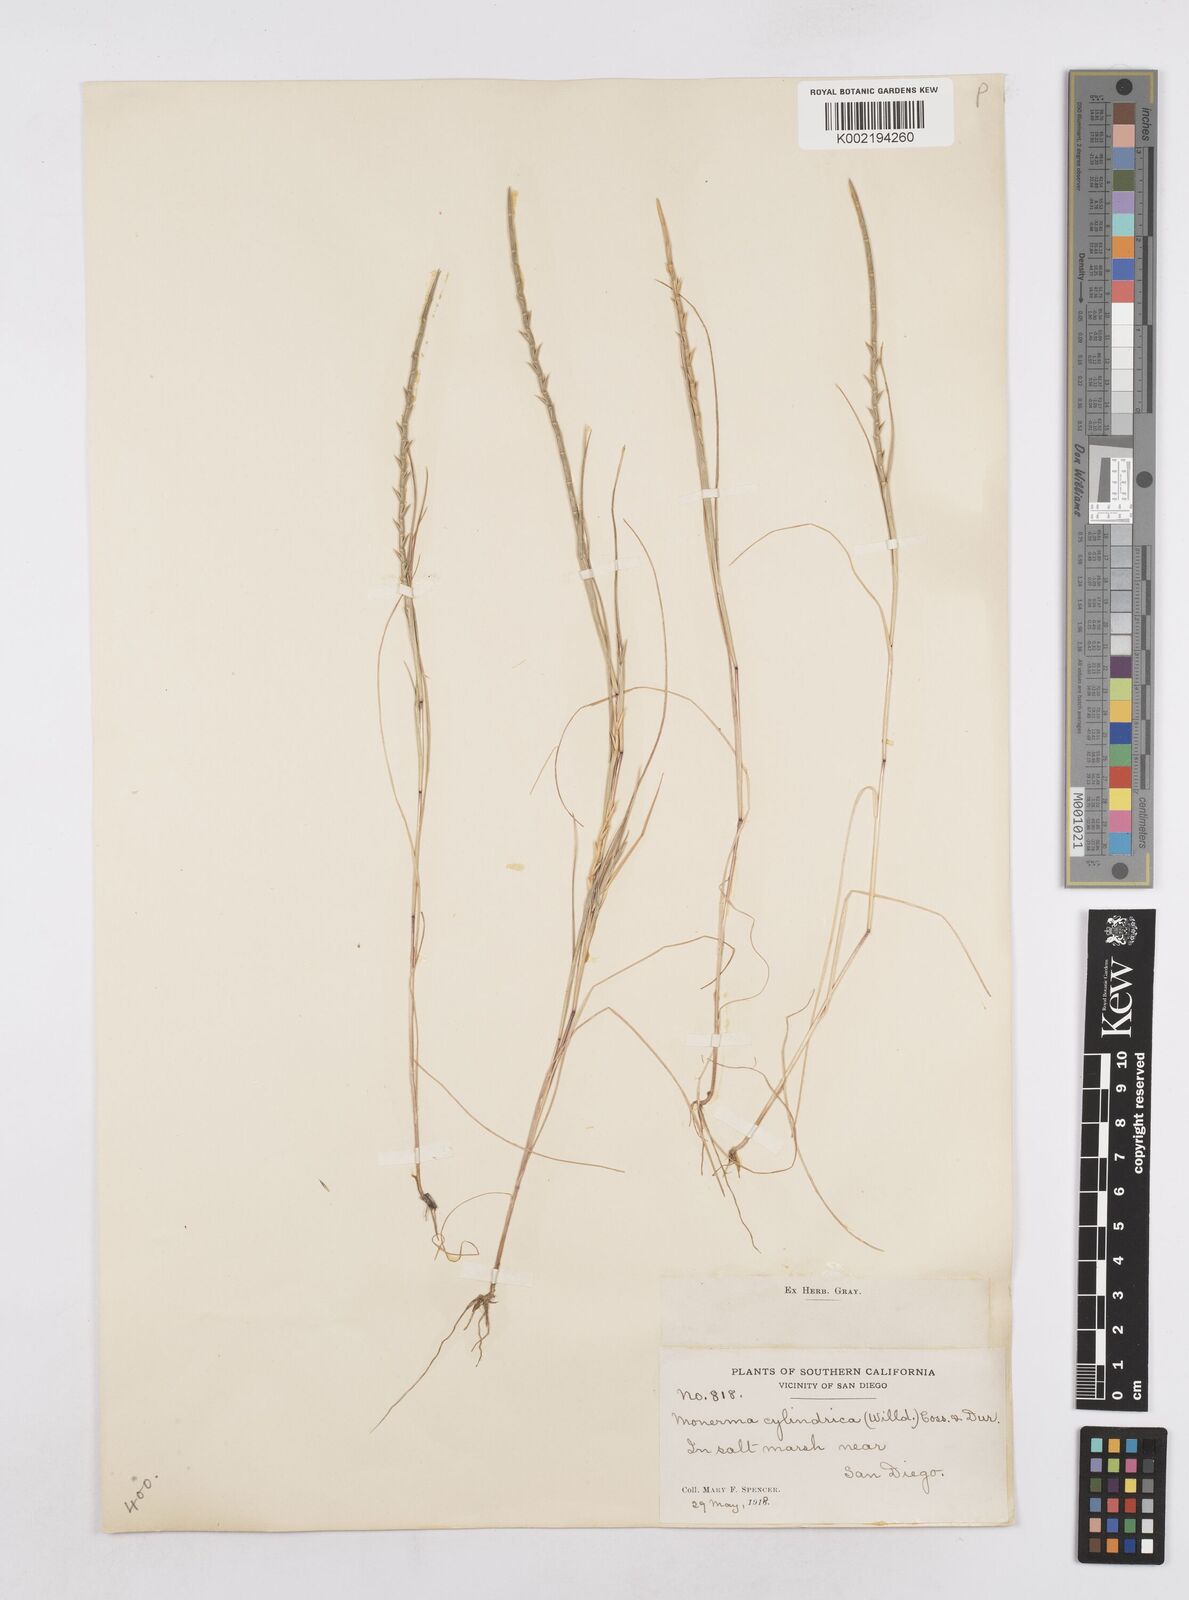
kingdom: Plantae
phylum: Tracheophyta
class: Liliopsida
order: Poales
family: Poaceae
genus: Parapholis
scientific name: Parapholis cylindrica
